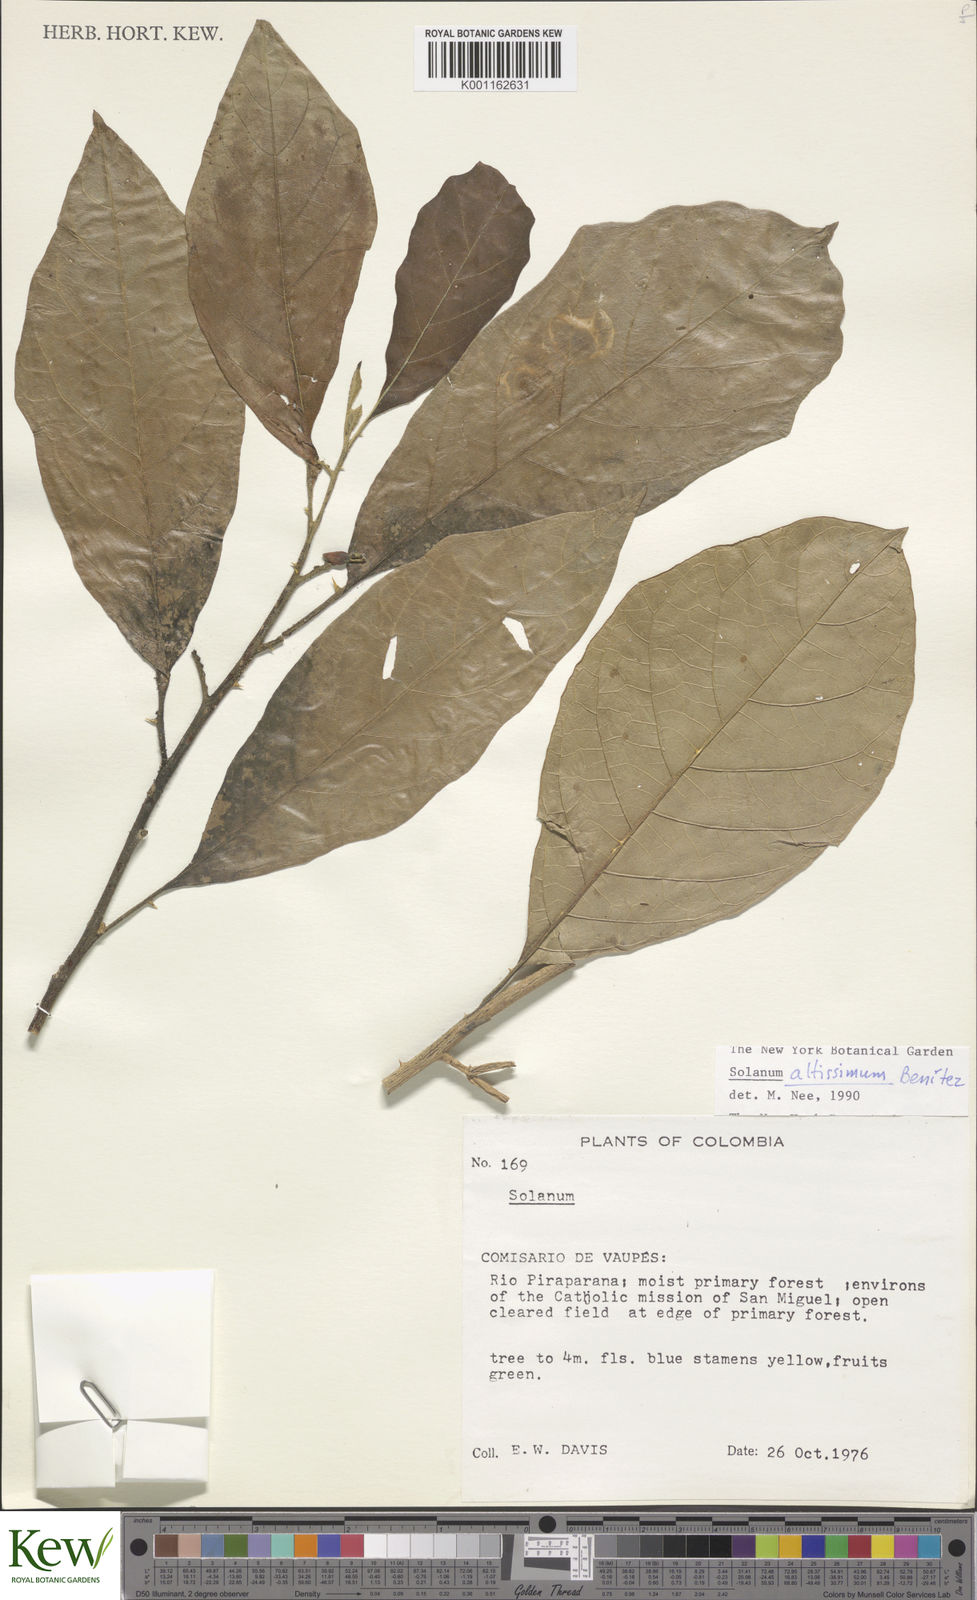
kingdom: Plantae
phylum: Tracheophyta
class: Magnoliopsida
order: Solanales
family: Solanaceae
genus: Solanum
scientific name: Solanum
